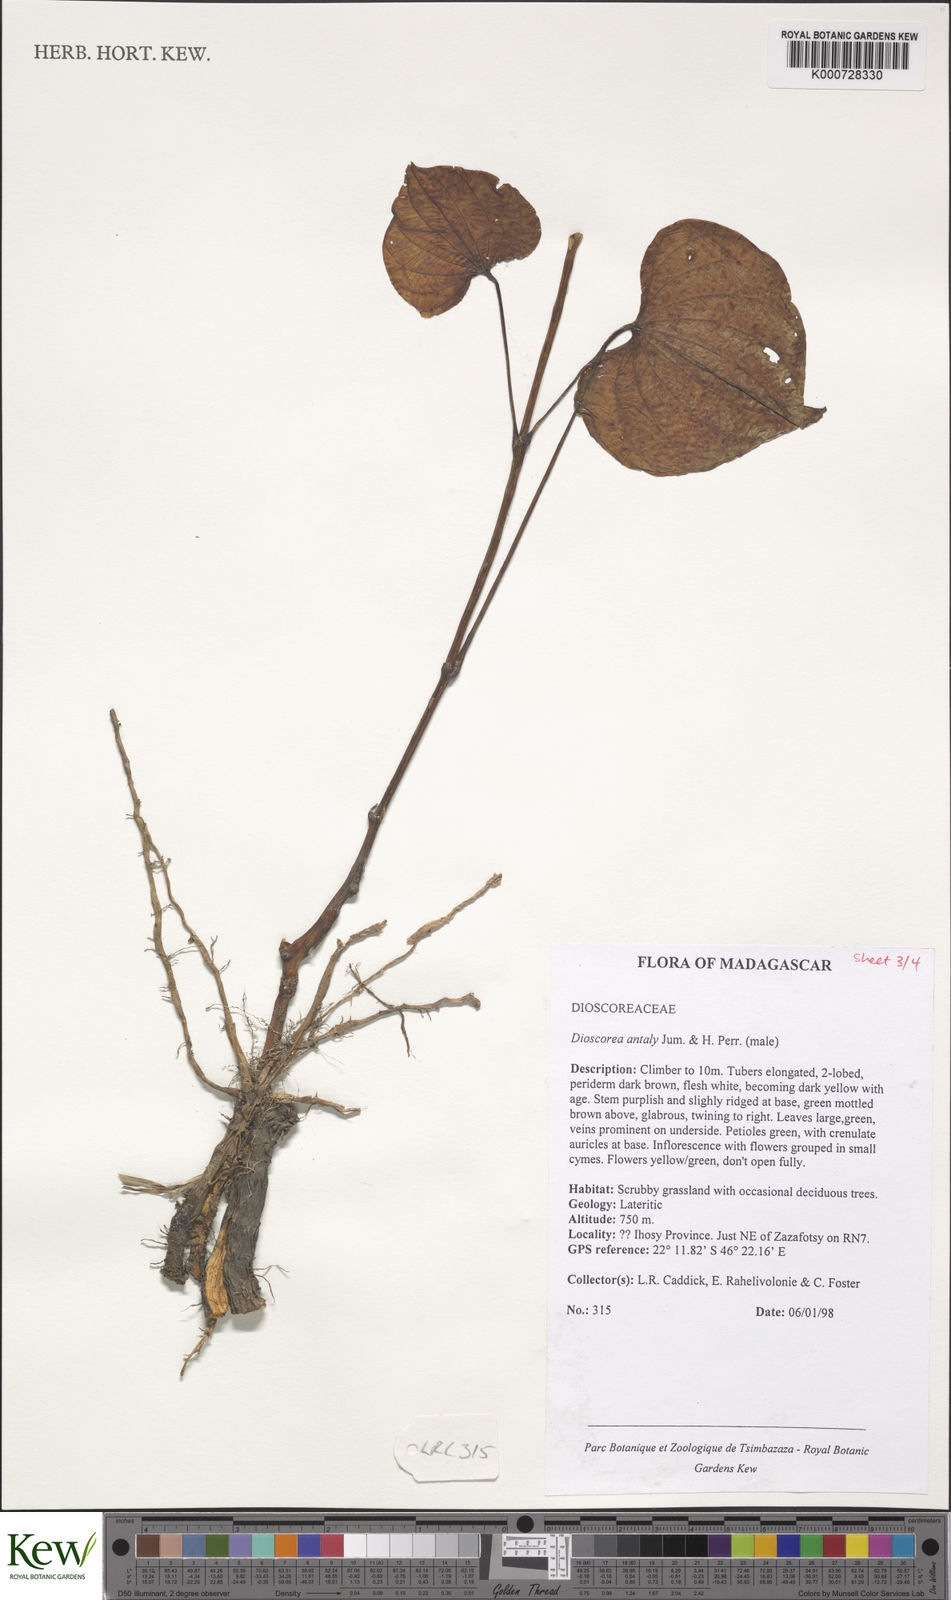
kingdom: Plantae
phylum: Tracheophyta
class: Liliopsida
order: Dioscoreales
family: Dioscoreaceae
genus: Dioscorea
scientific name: Dioscorea antaly
